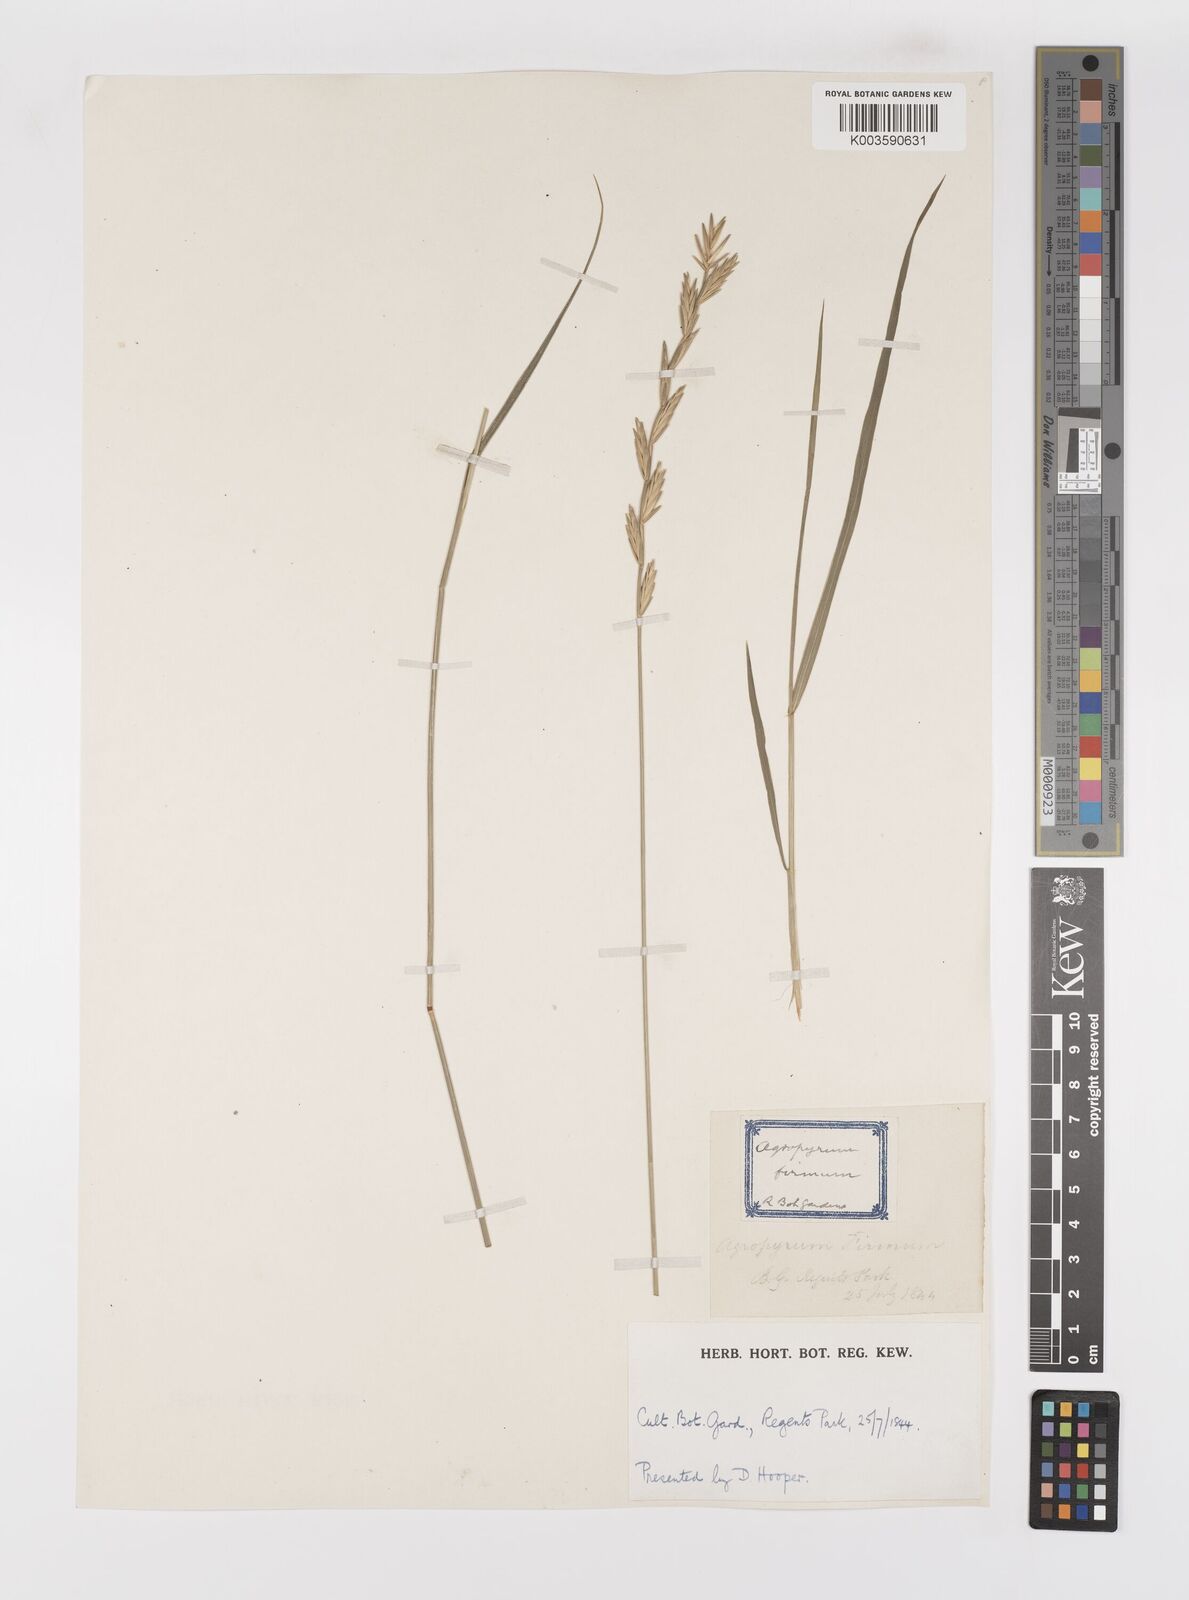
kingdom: Plantae
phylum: Tracheophyta
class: Liliopsida
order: Poales
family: Poaceae
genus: Thinopyrum
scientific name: Thinopyrum intermedium
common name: Intermediate wheatgrass
